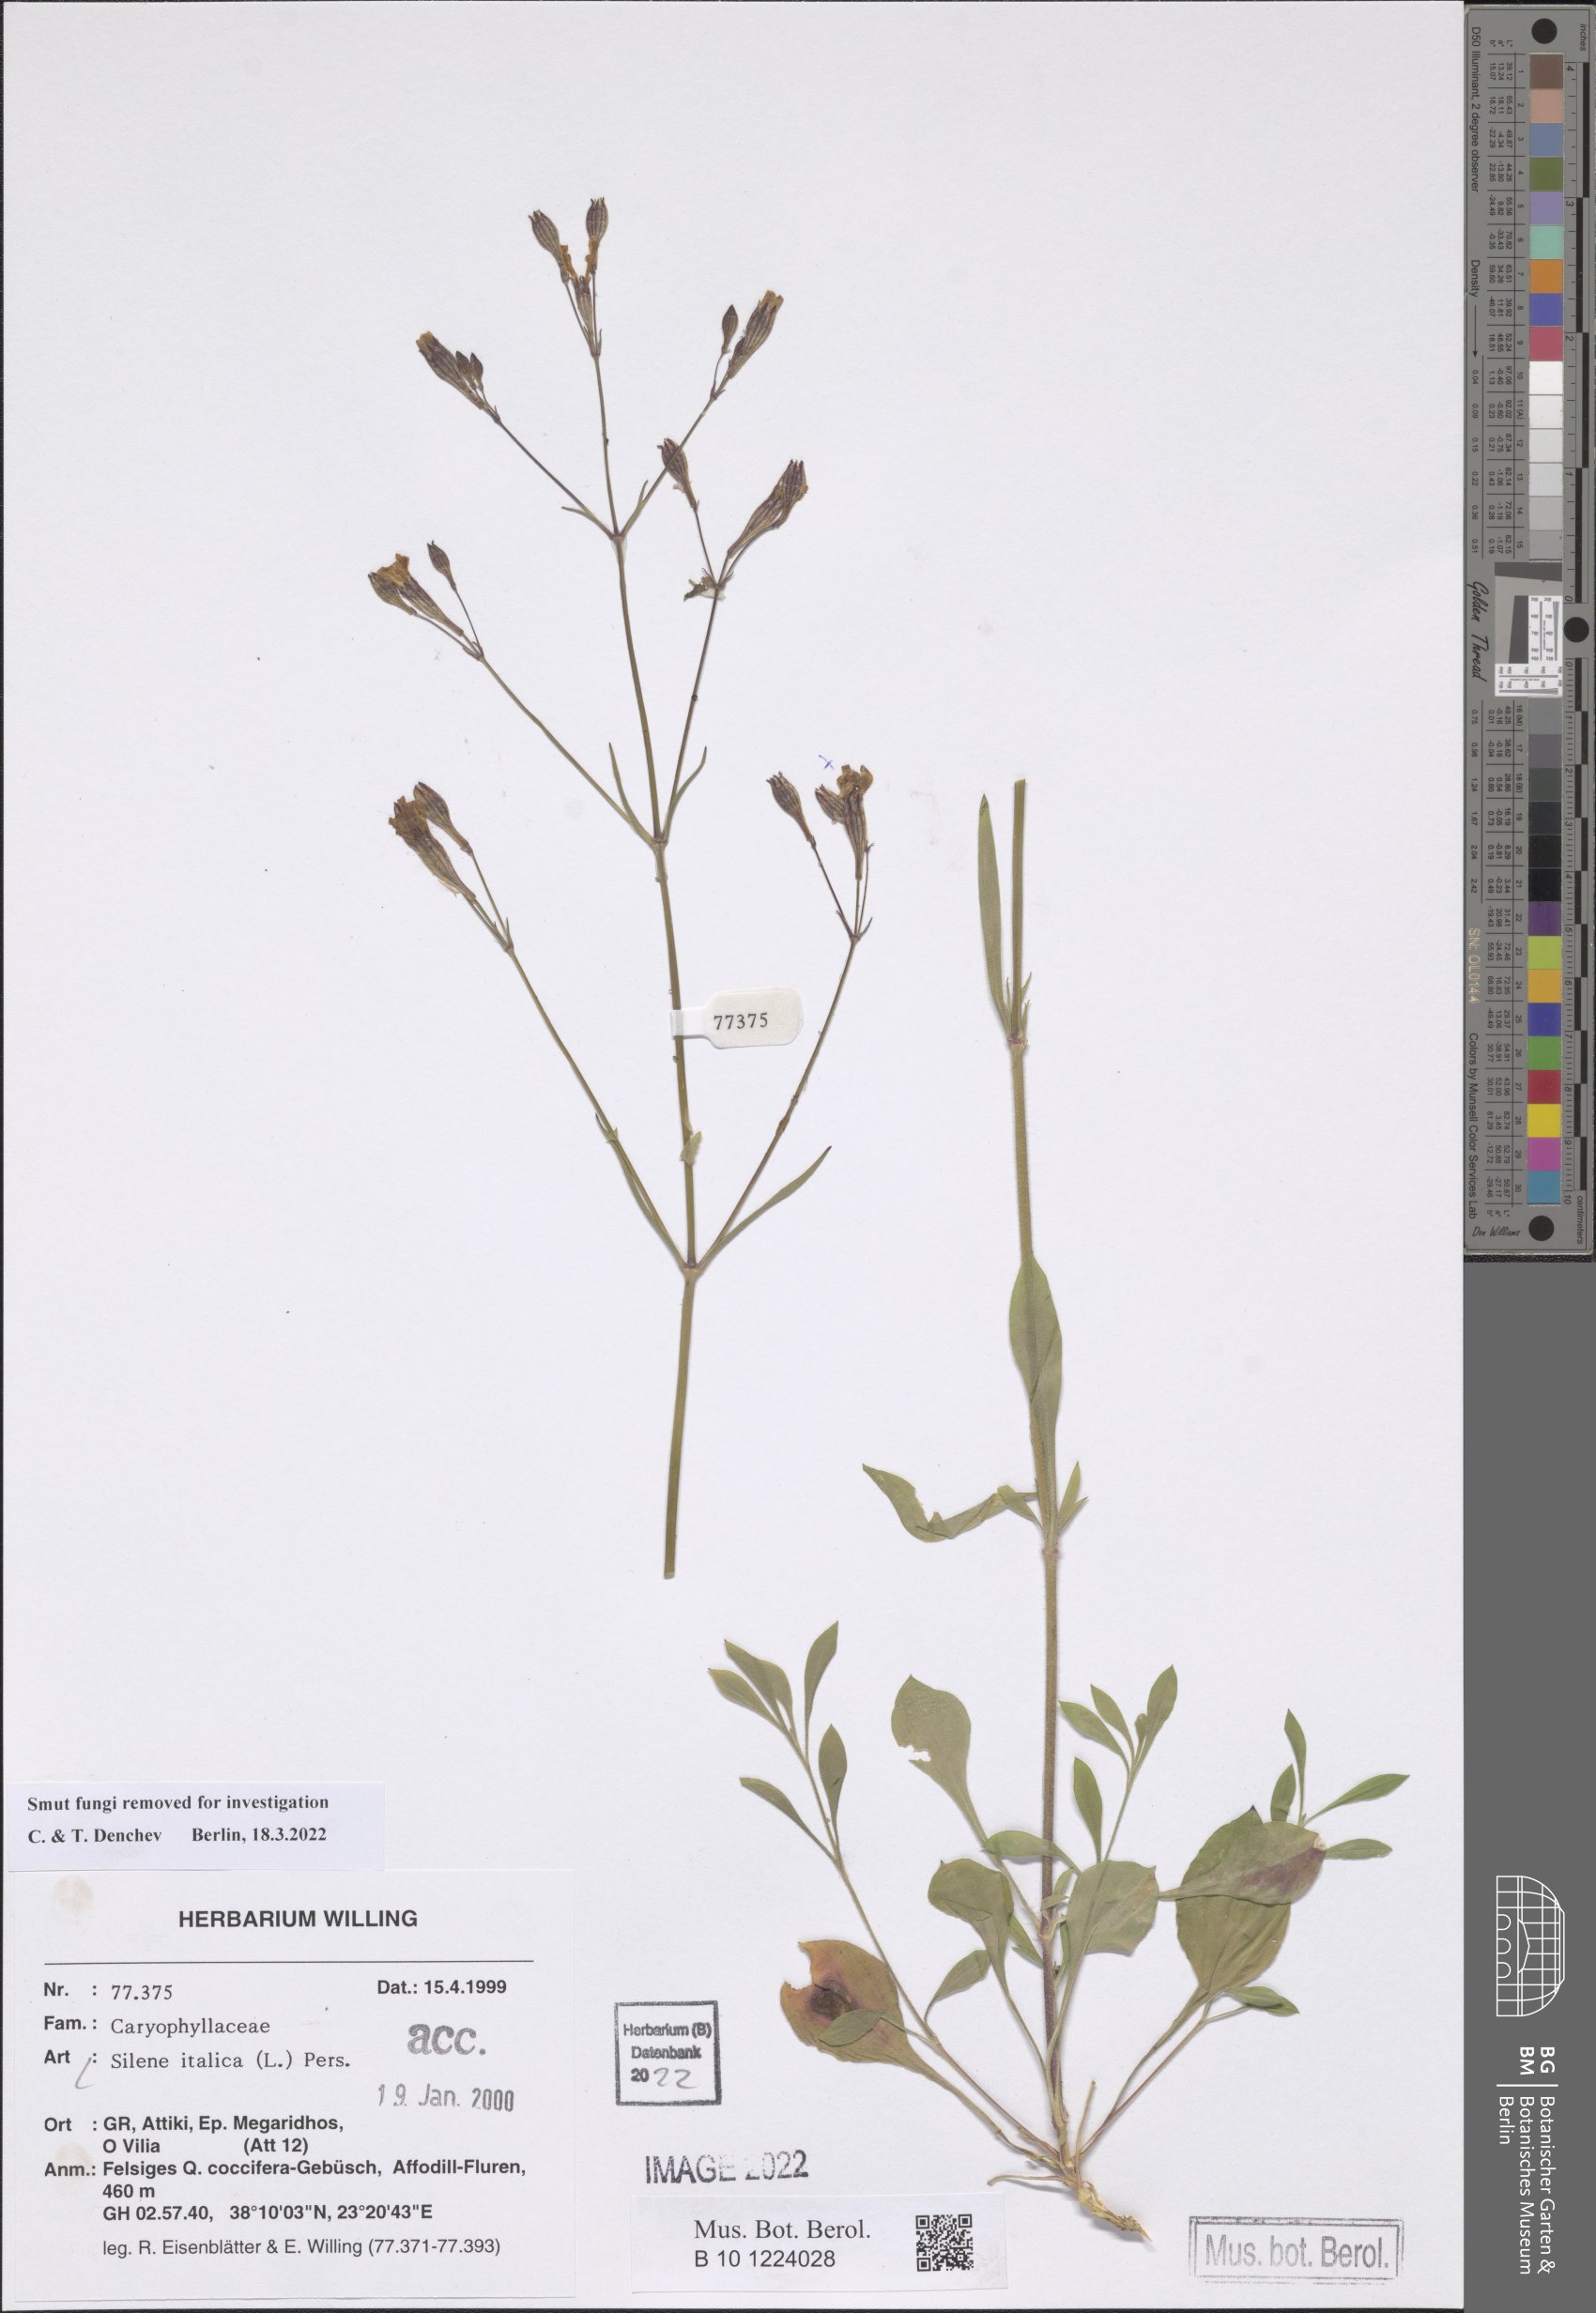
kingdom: Plantae
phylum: Tracheophyta
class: Magnoliopsida
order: Caryophyllales
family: Caryophyllaceae
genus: Silene
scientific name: Silene italica
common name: Italian catchfly
